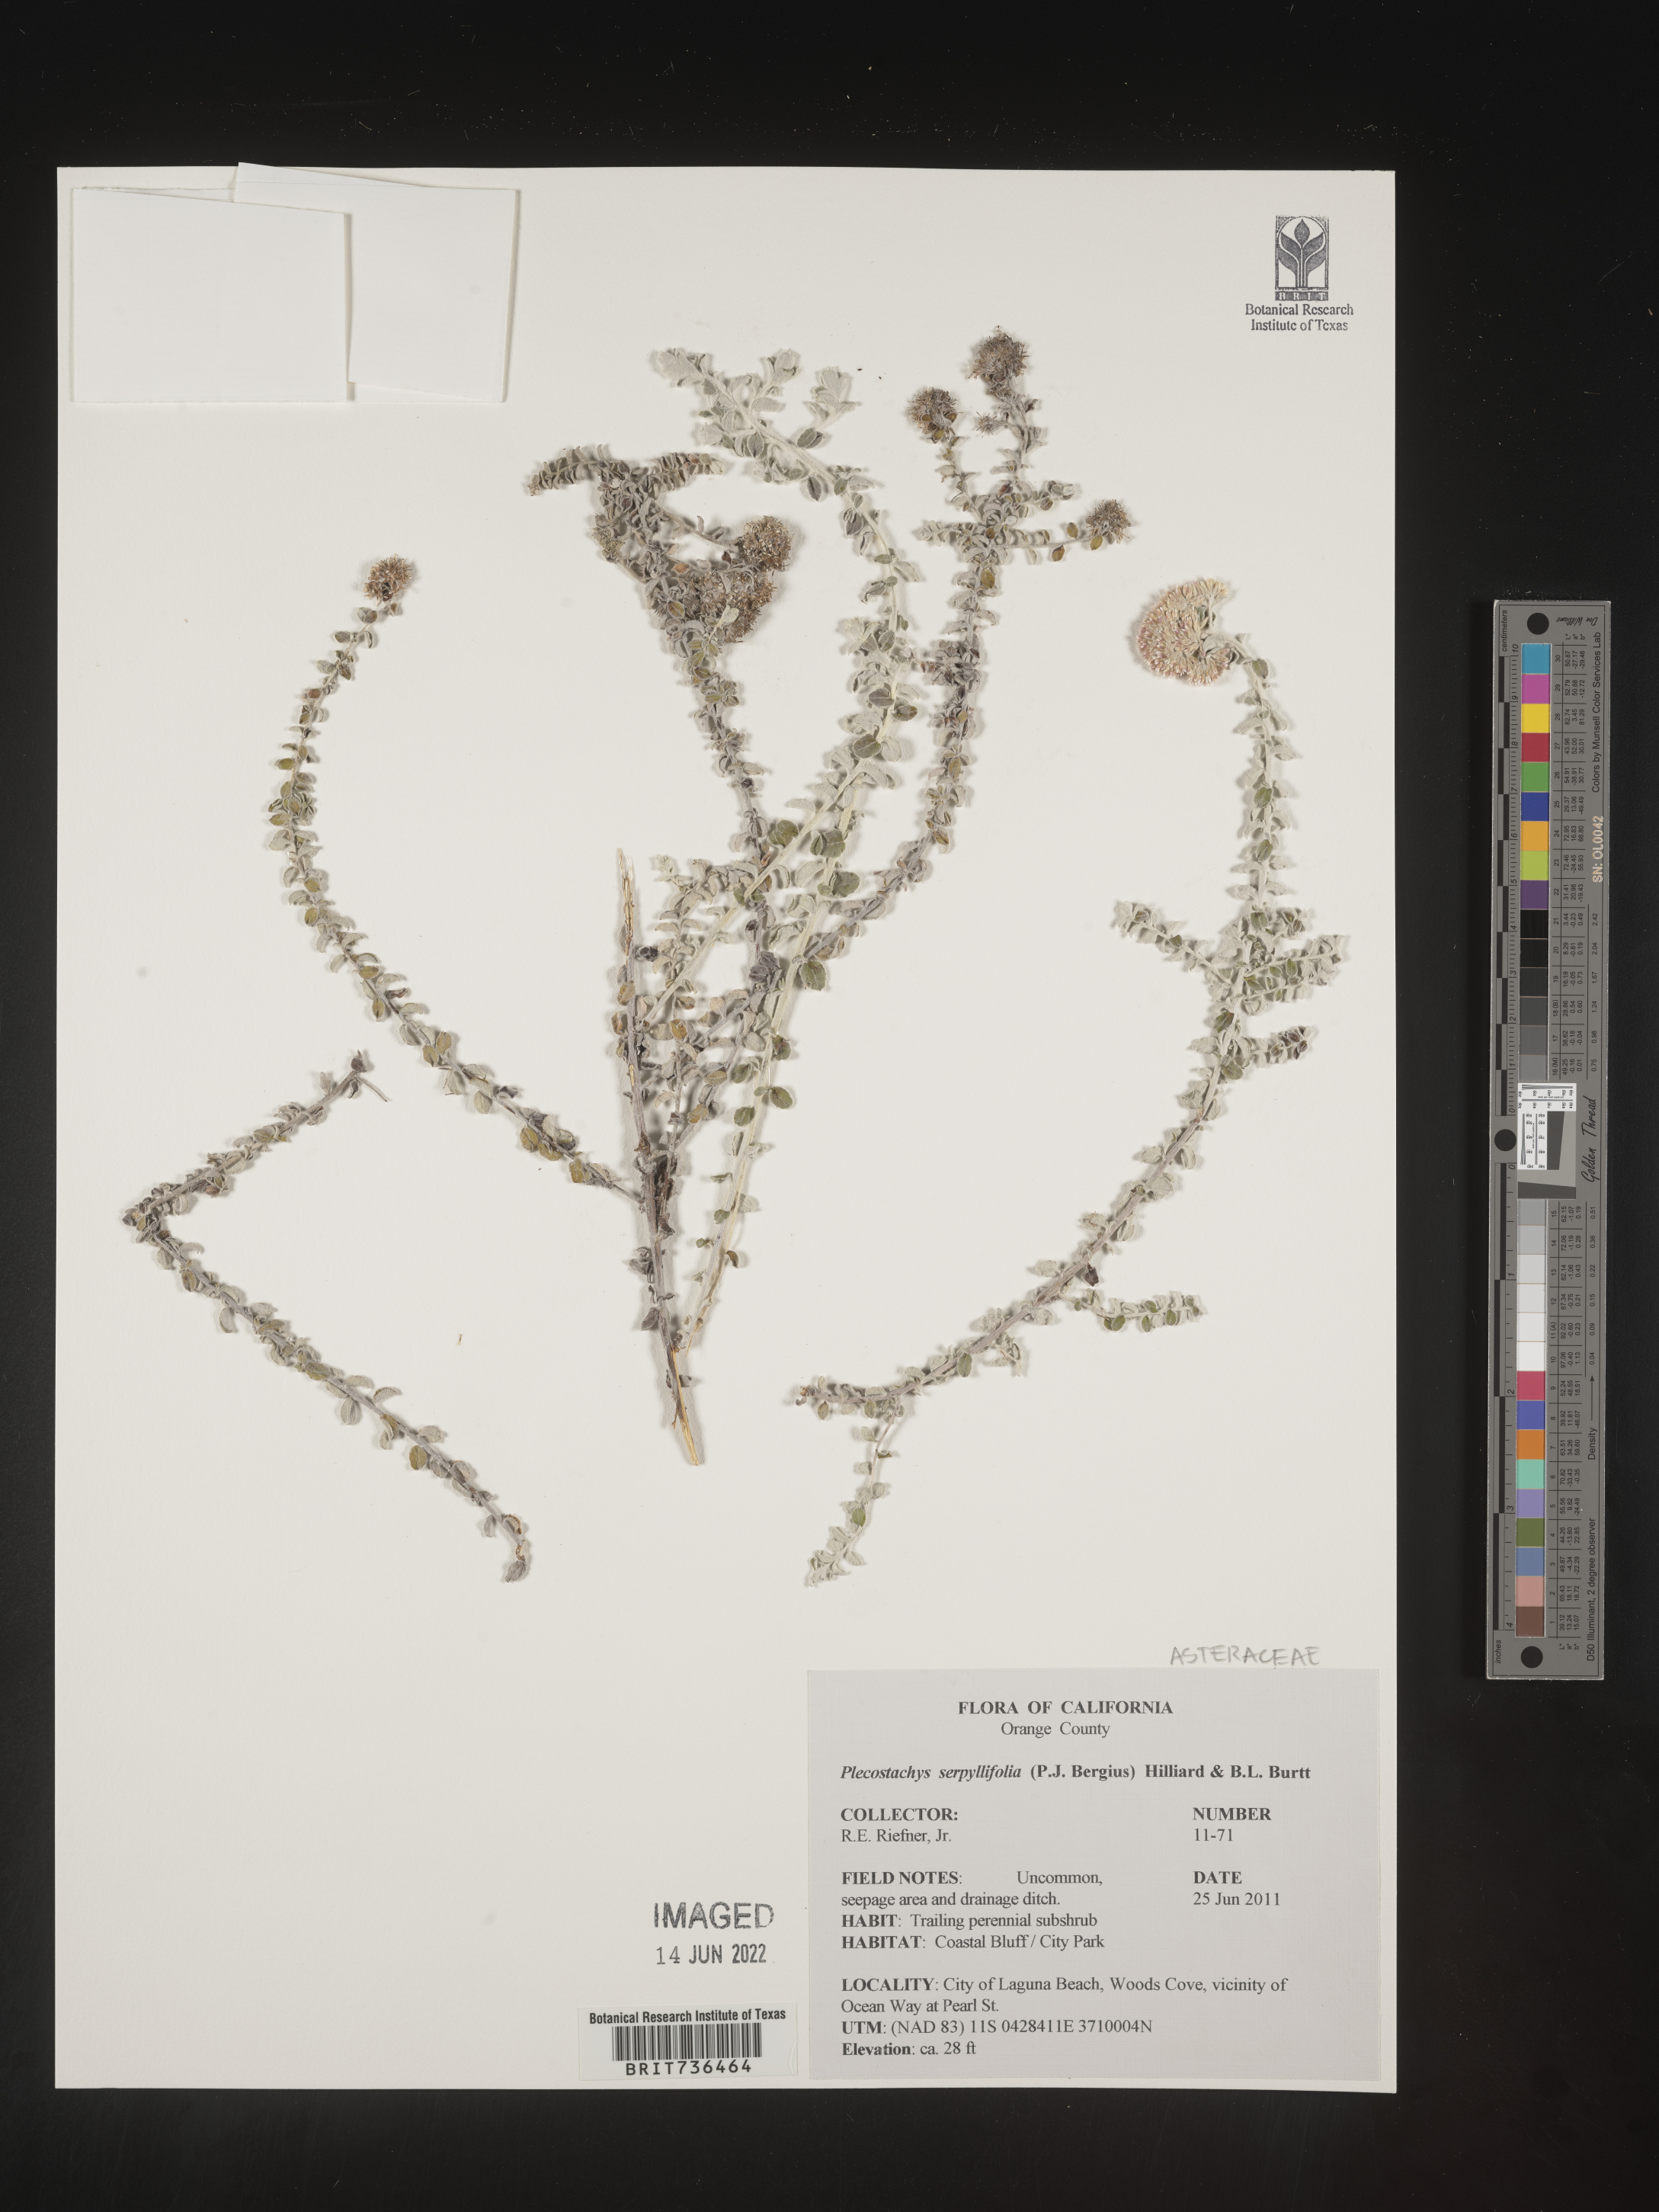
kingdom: Plantae
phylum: Tracheophyta
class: Magnoliopsida
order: Asterales
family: Asteraceae
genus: Plecostachys
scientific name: Plecostachys
